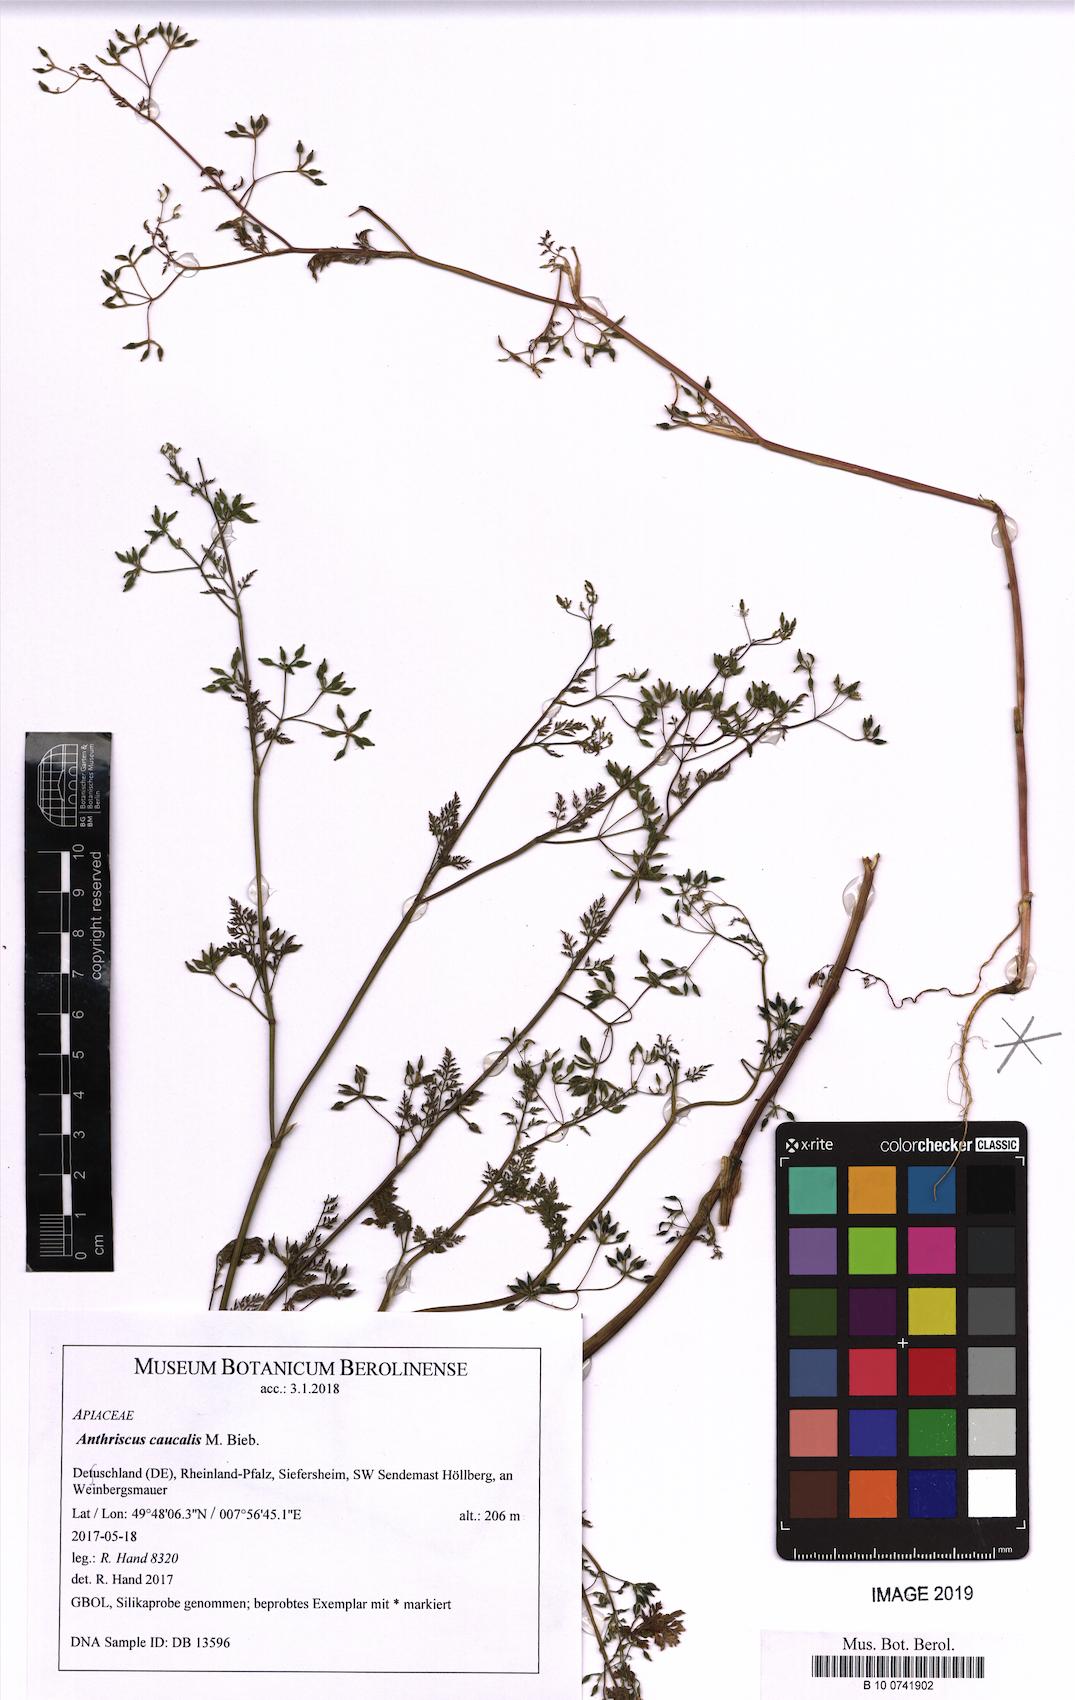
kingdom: Plantae
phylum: Tracheophyta
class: Magnoliopsida
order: Apiales
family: Apiaceae
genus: Anthriscus
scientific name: Anthriscus caucalis
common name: Bur chervil
